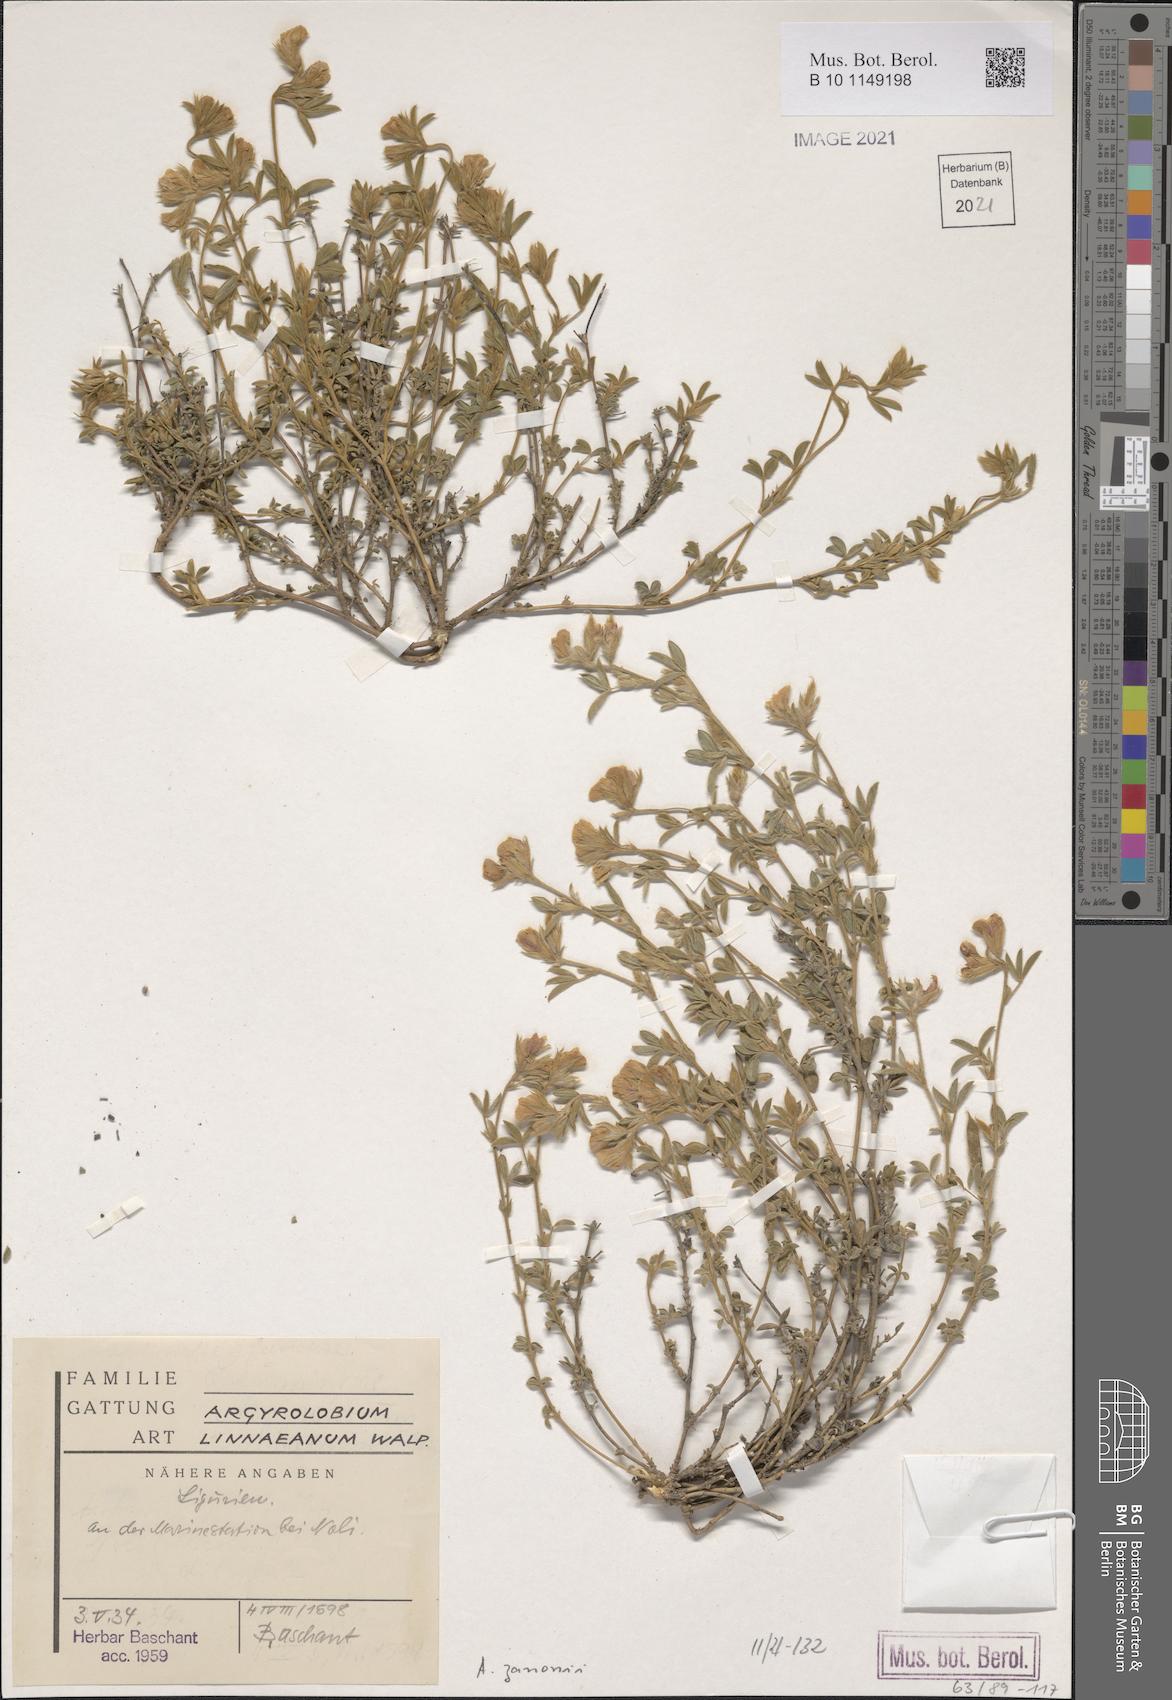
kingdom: Plantae
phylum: Tracheophyta
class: Magnoliopsida
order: Fabales
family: Fabaceae
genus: Argyrolobium
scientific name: Argyrolobium zanonii
